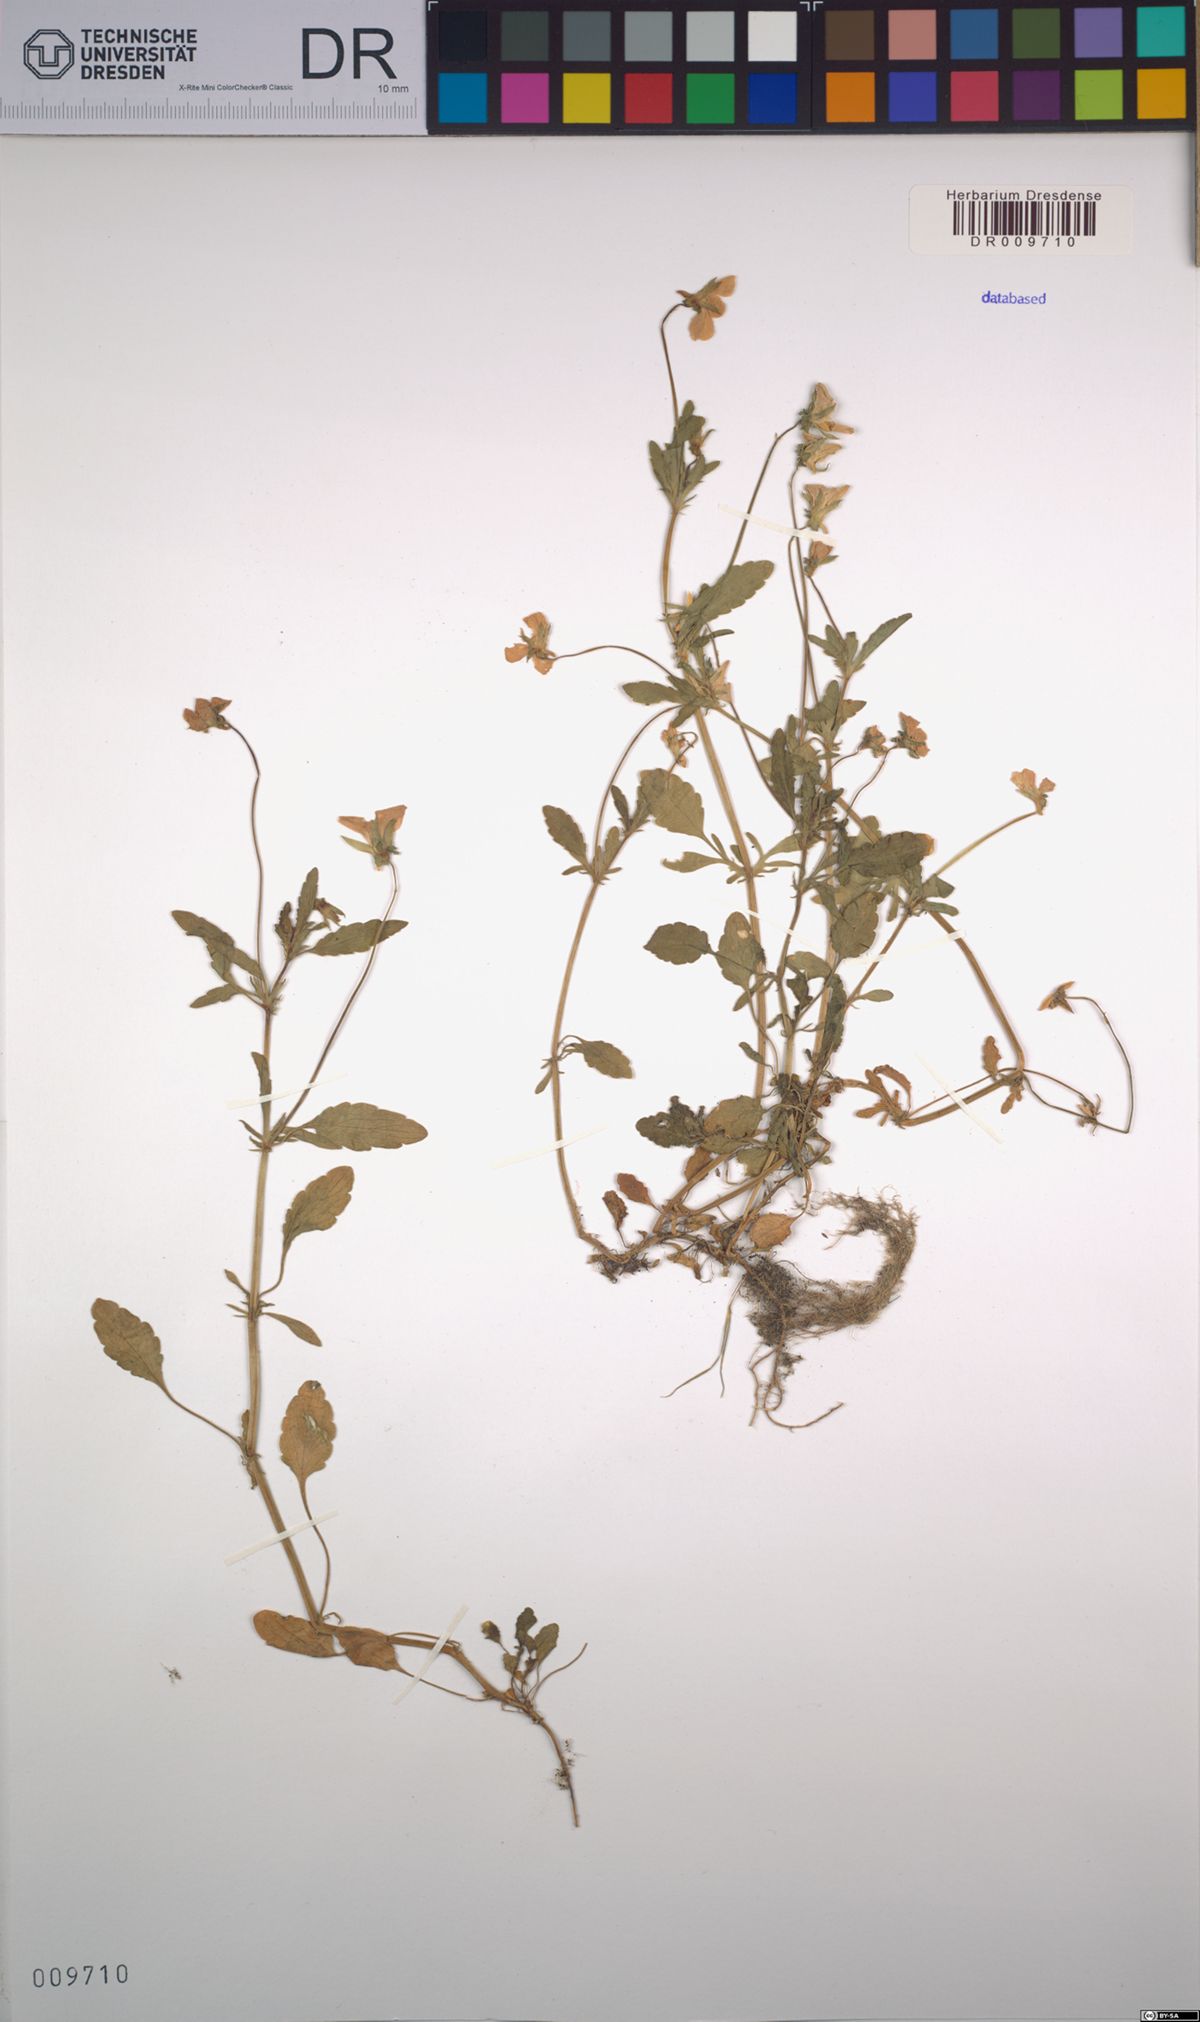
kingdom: Plantae
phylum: Tracheophyta
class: Magnoliopsida
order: Malpighiales
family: Violaceae
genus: Viola
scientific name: Viola tricolor
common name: Pansy
